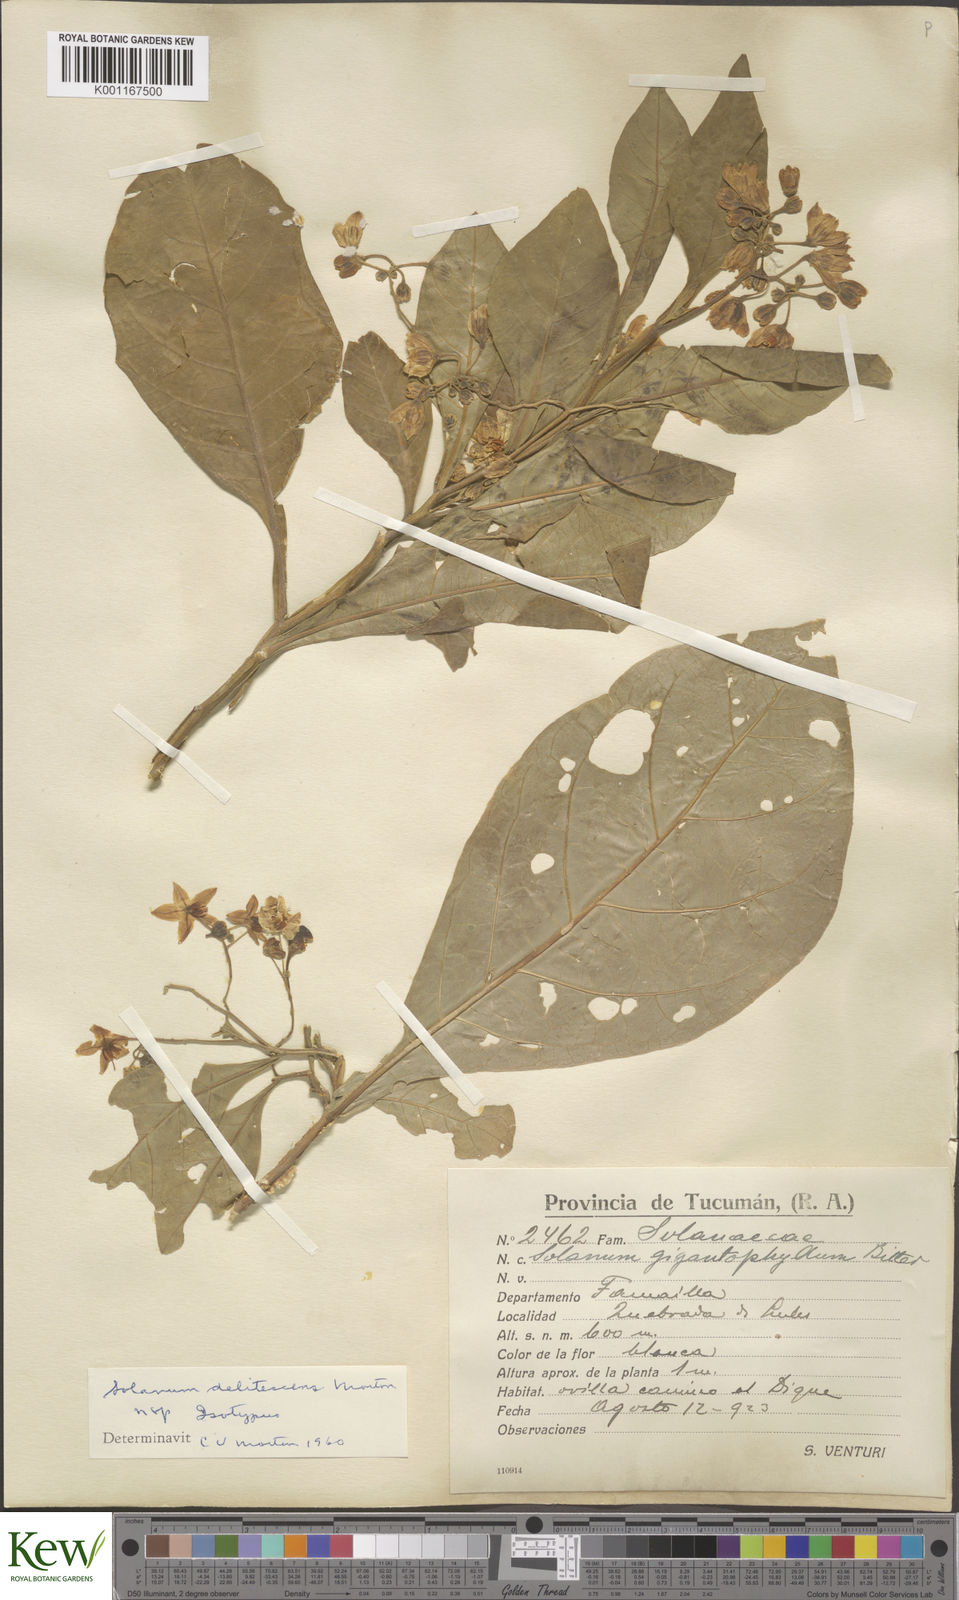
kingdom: Plantae
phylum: Tracheophyta
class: Magnoliopsida
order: Solanales
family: Solanaceae
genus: Solanum
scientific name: Solanum delitescens
